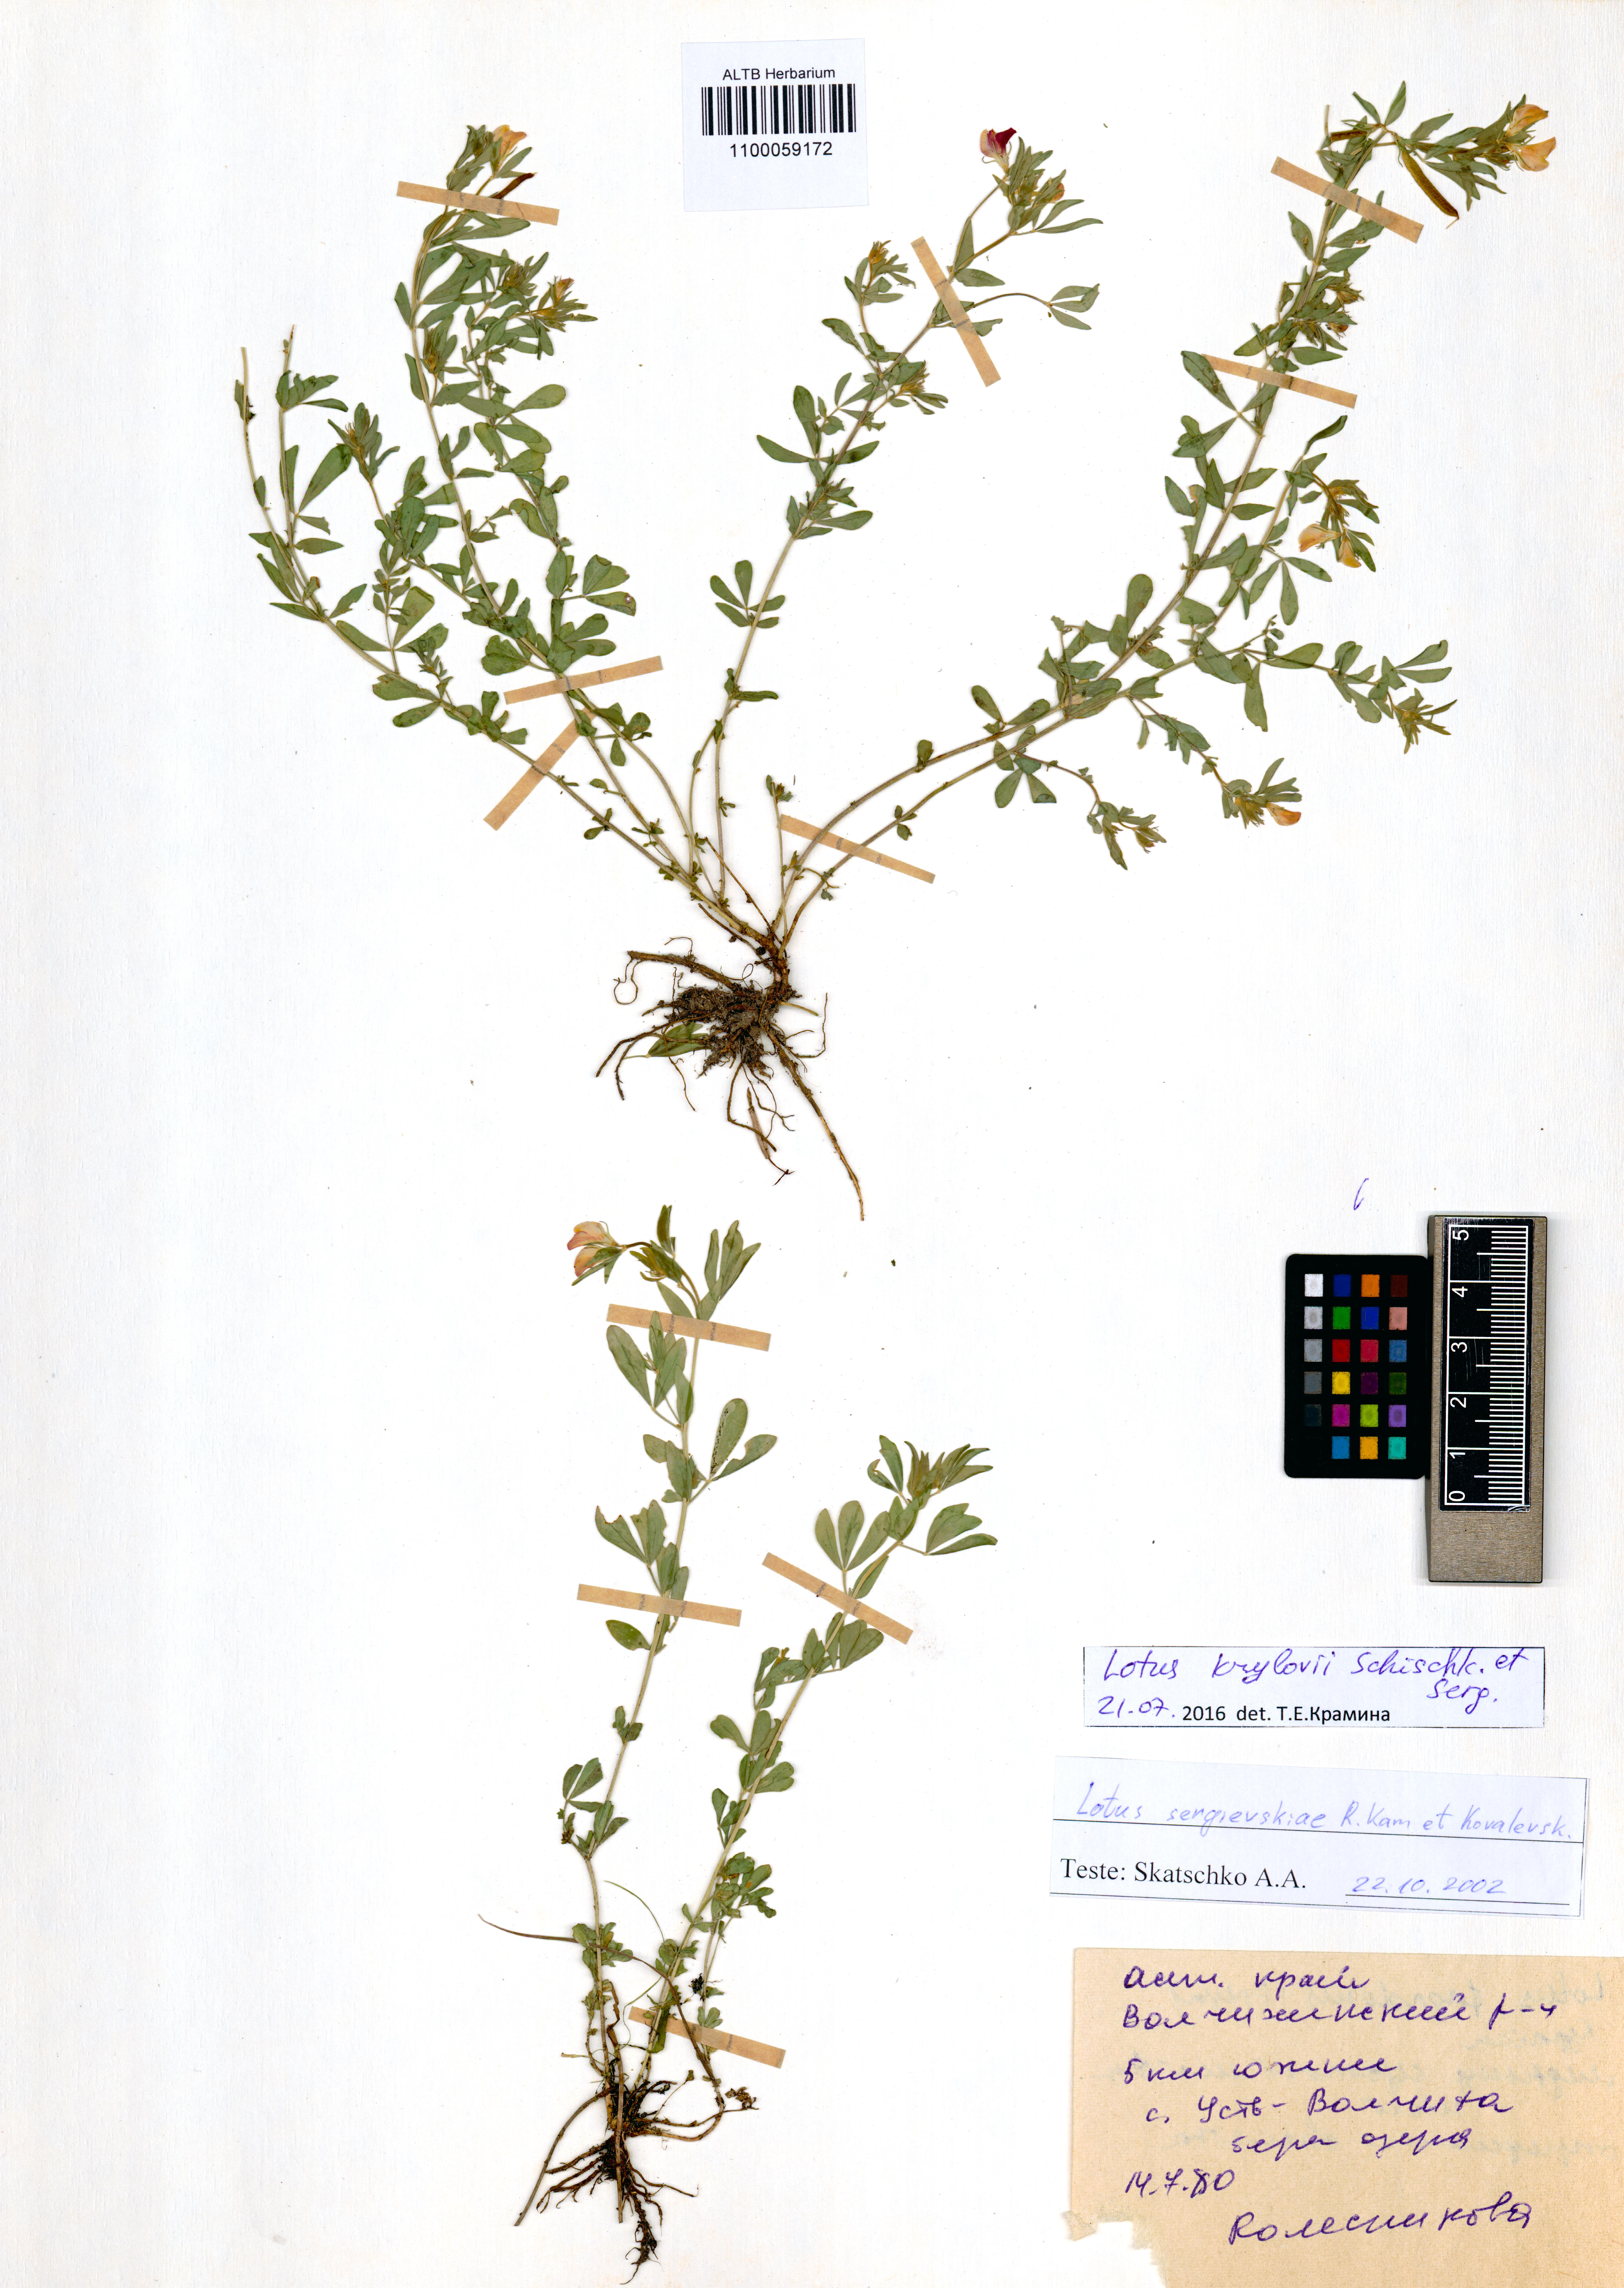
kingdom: Plantae
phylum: Tracheophyta
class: Magnoliopsida
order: Fabales
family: Fabaceae
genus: Lotus
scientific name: Lotus krylovii
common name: Krylov's bird's-foot trefoil
